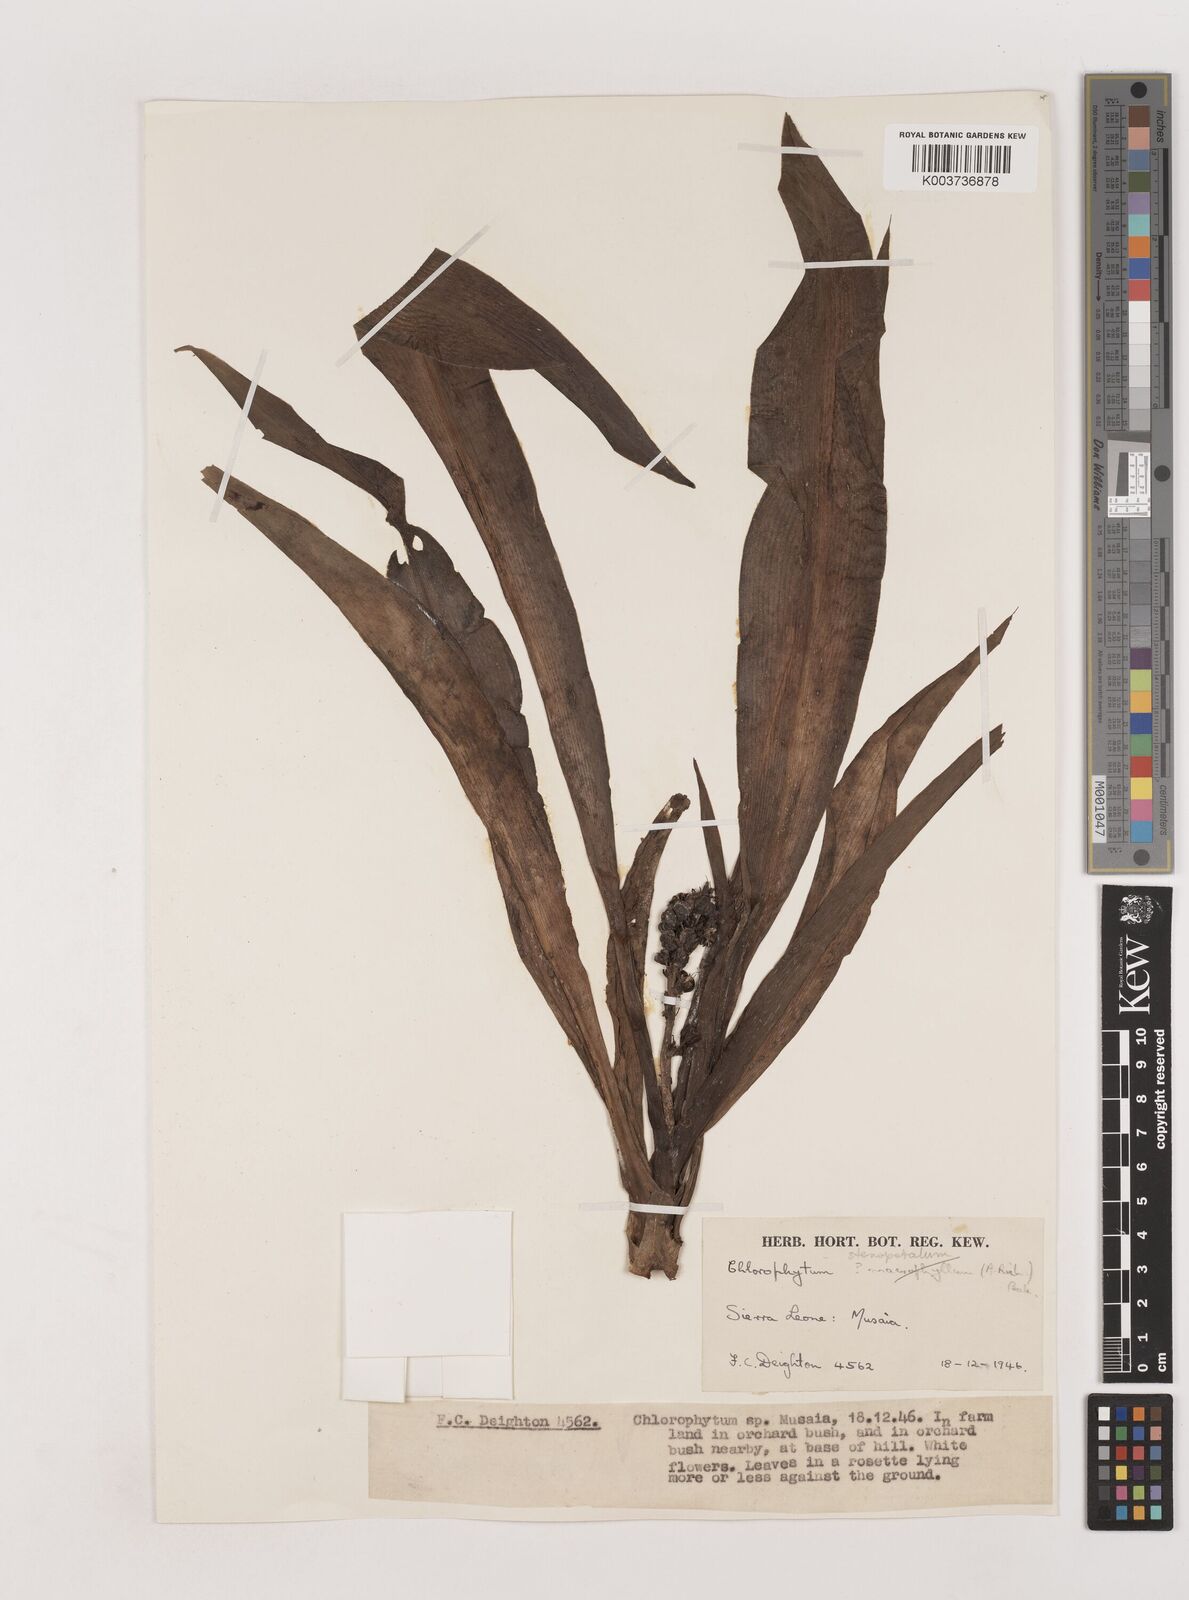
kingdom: Plantae
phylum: Tracheophyta
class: Liliopsida
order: Asparagales
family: Asparagaceae
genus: Chlorophytum
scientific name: Chlorophytum stenopetalum
